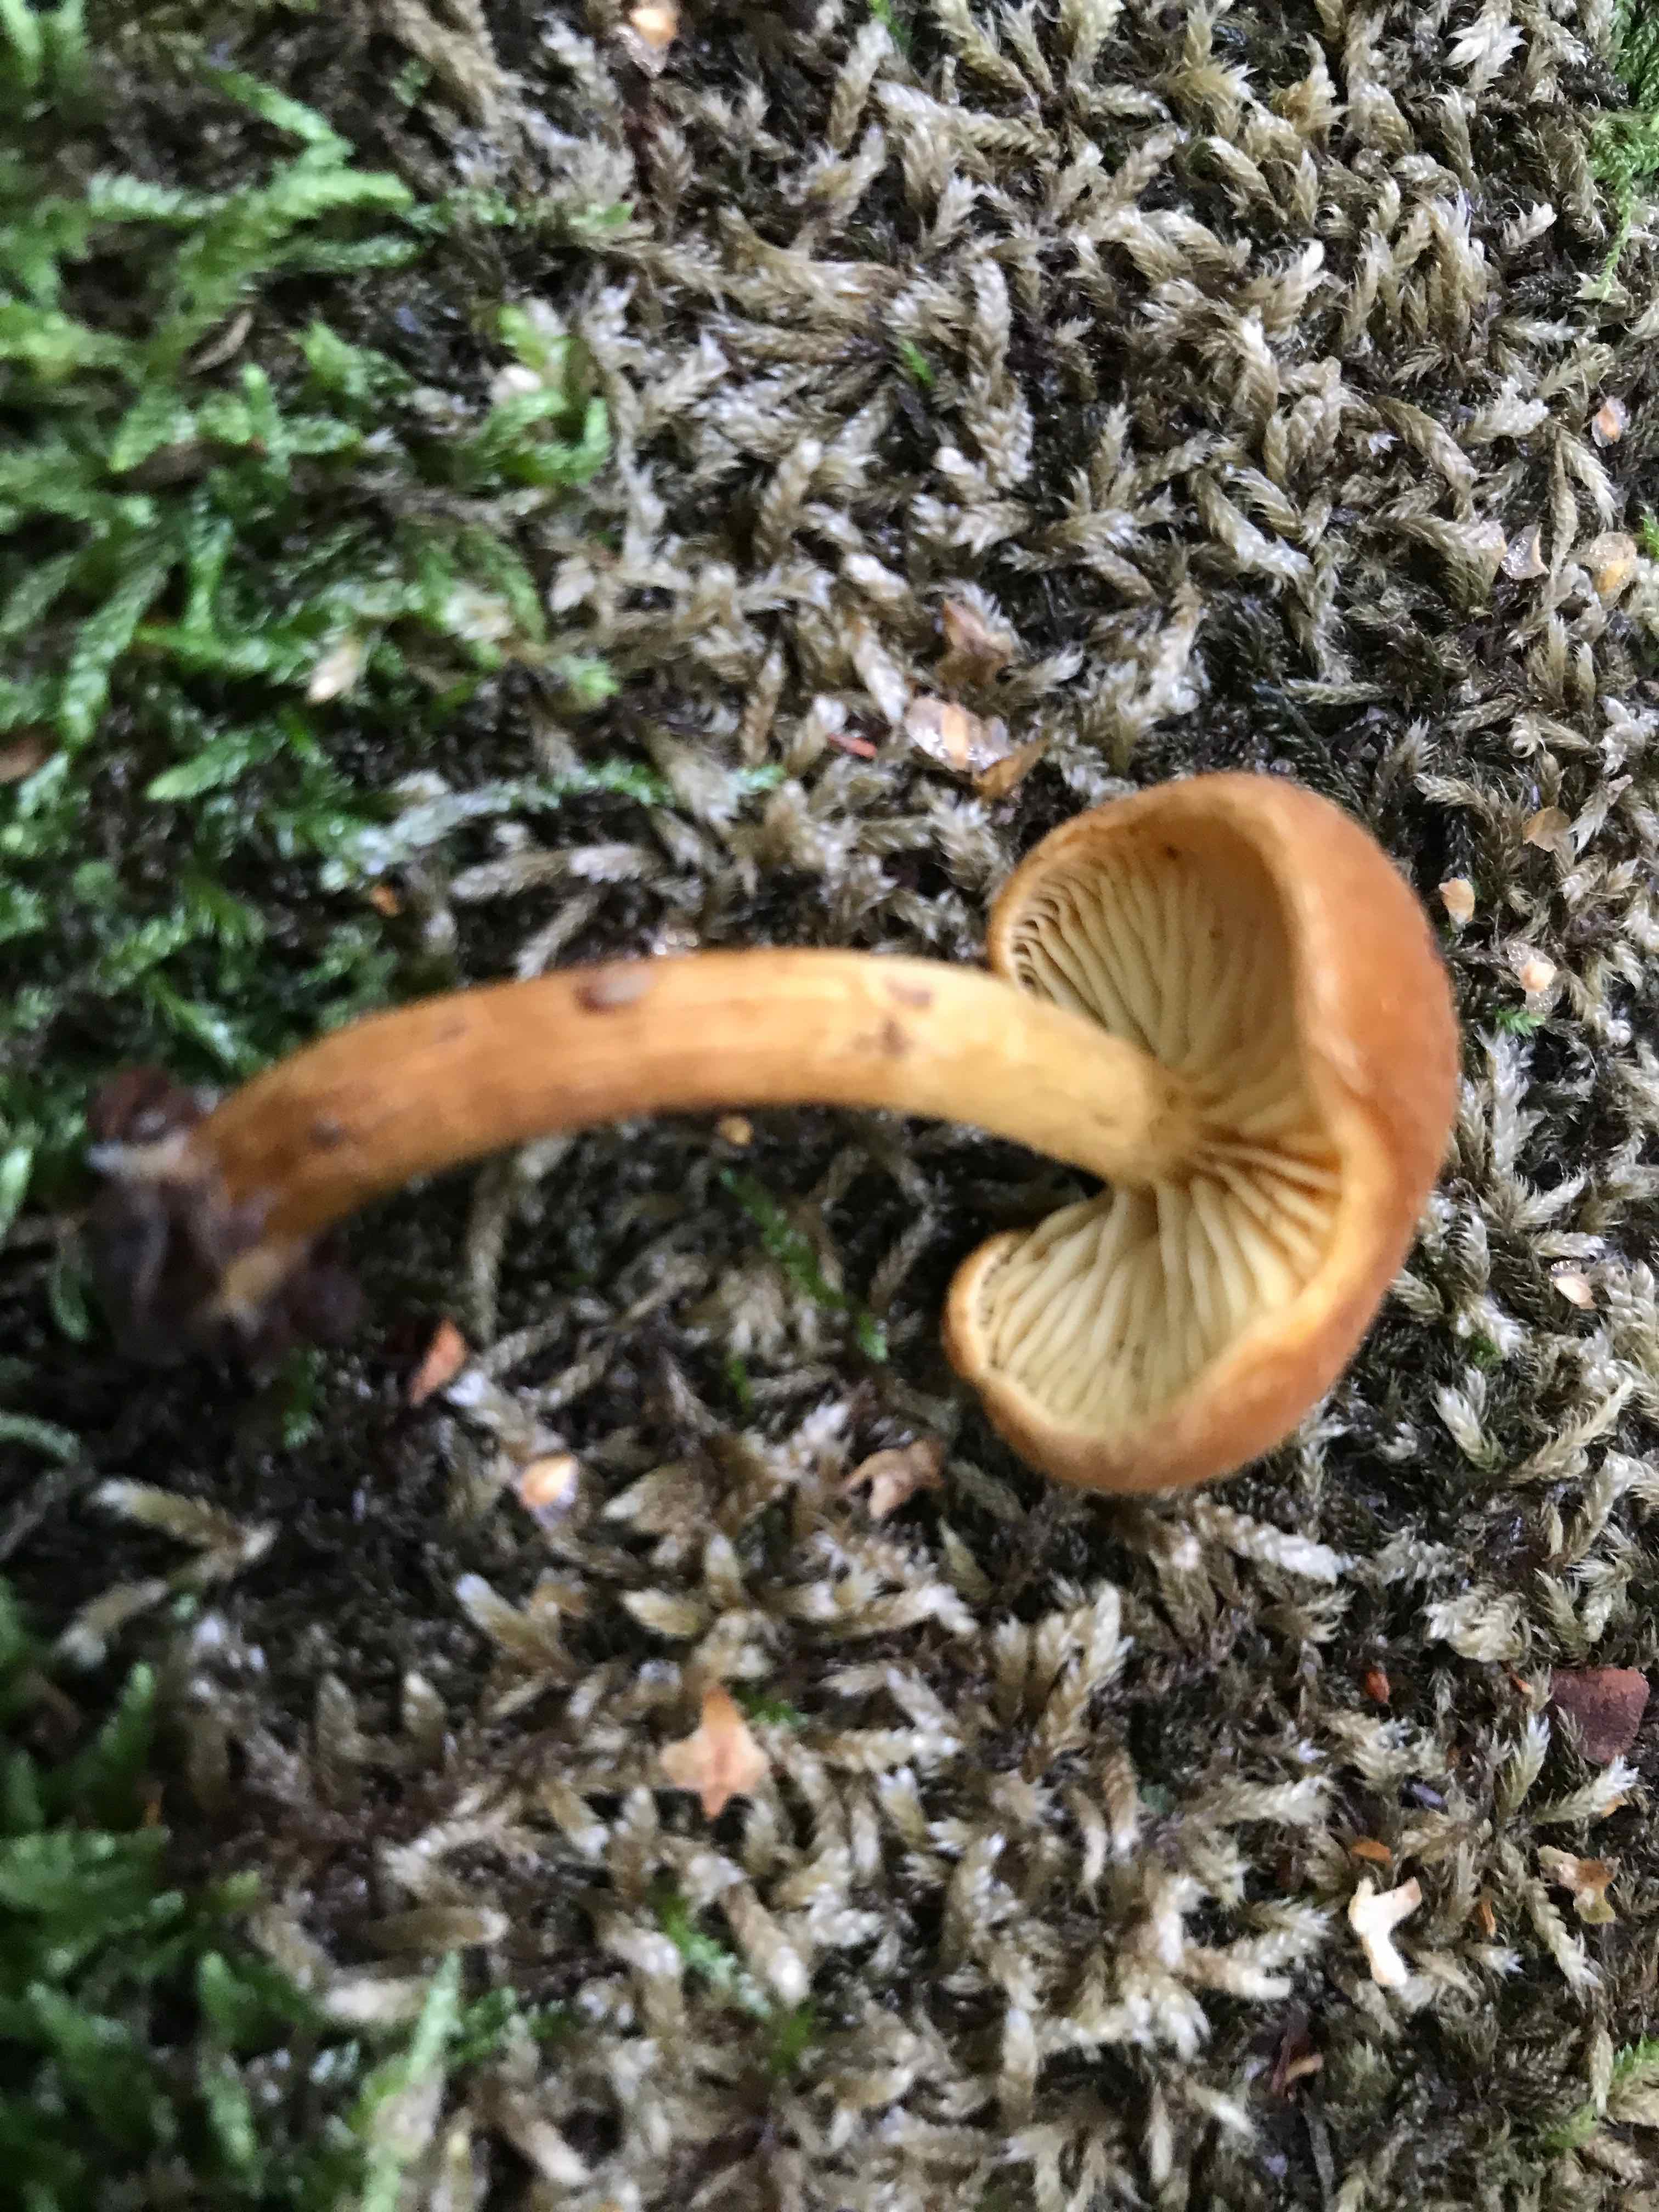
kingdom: Fungi
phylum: Basidiomycota
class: Agaricomycetes
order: Agaricales
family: Tubariaceae
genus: Flammulaster
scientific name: Flammulaster limulatus
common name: gylden grynskælhat
